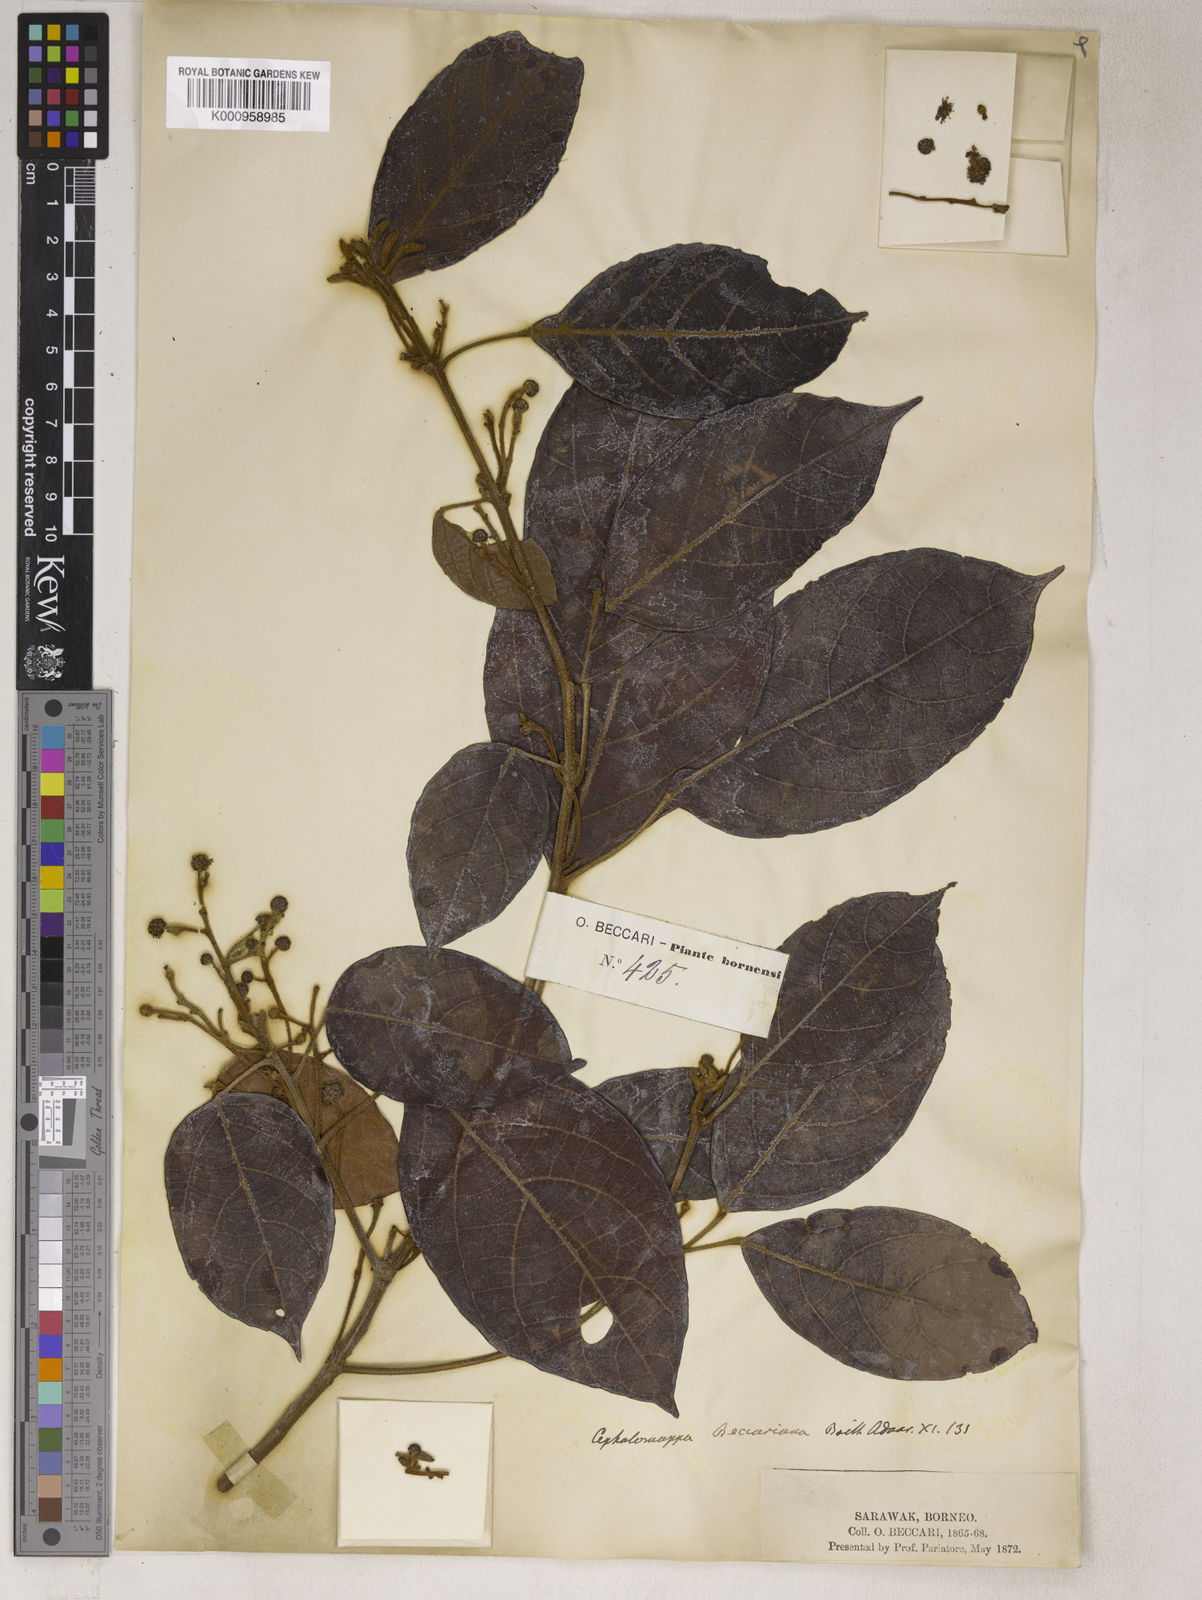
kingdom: Plantae
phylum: Tracheophyta
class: Magnoliopsida
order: Malpighiales
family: Euphorbiaceae
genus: Cephalomappa
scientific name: Cephalomappa beccariana
